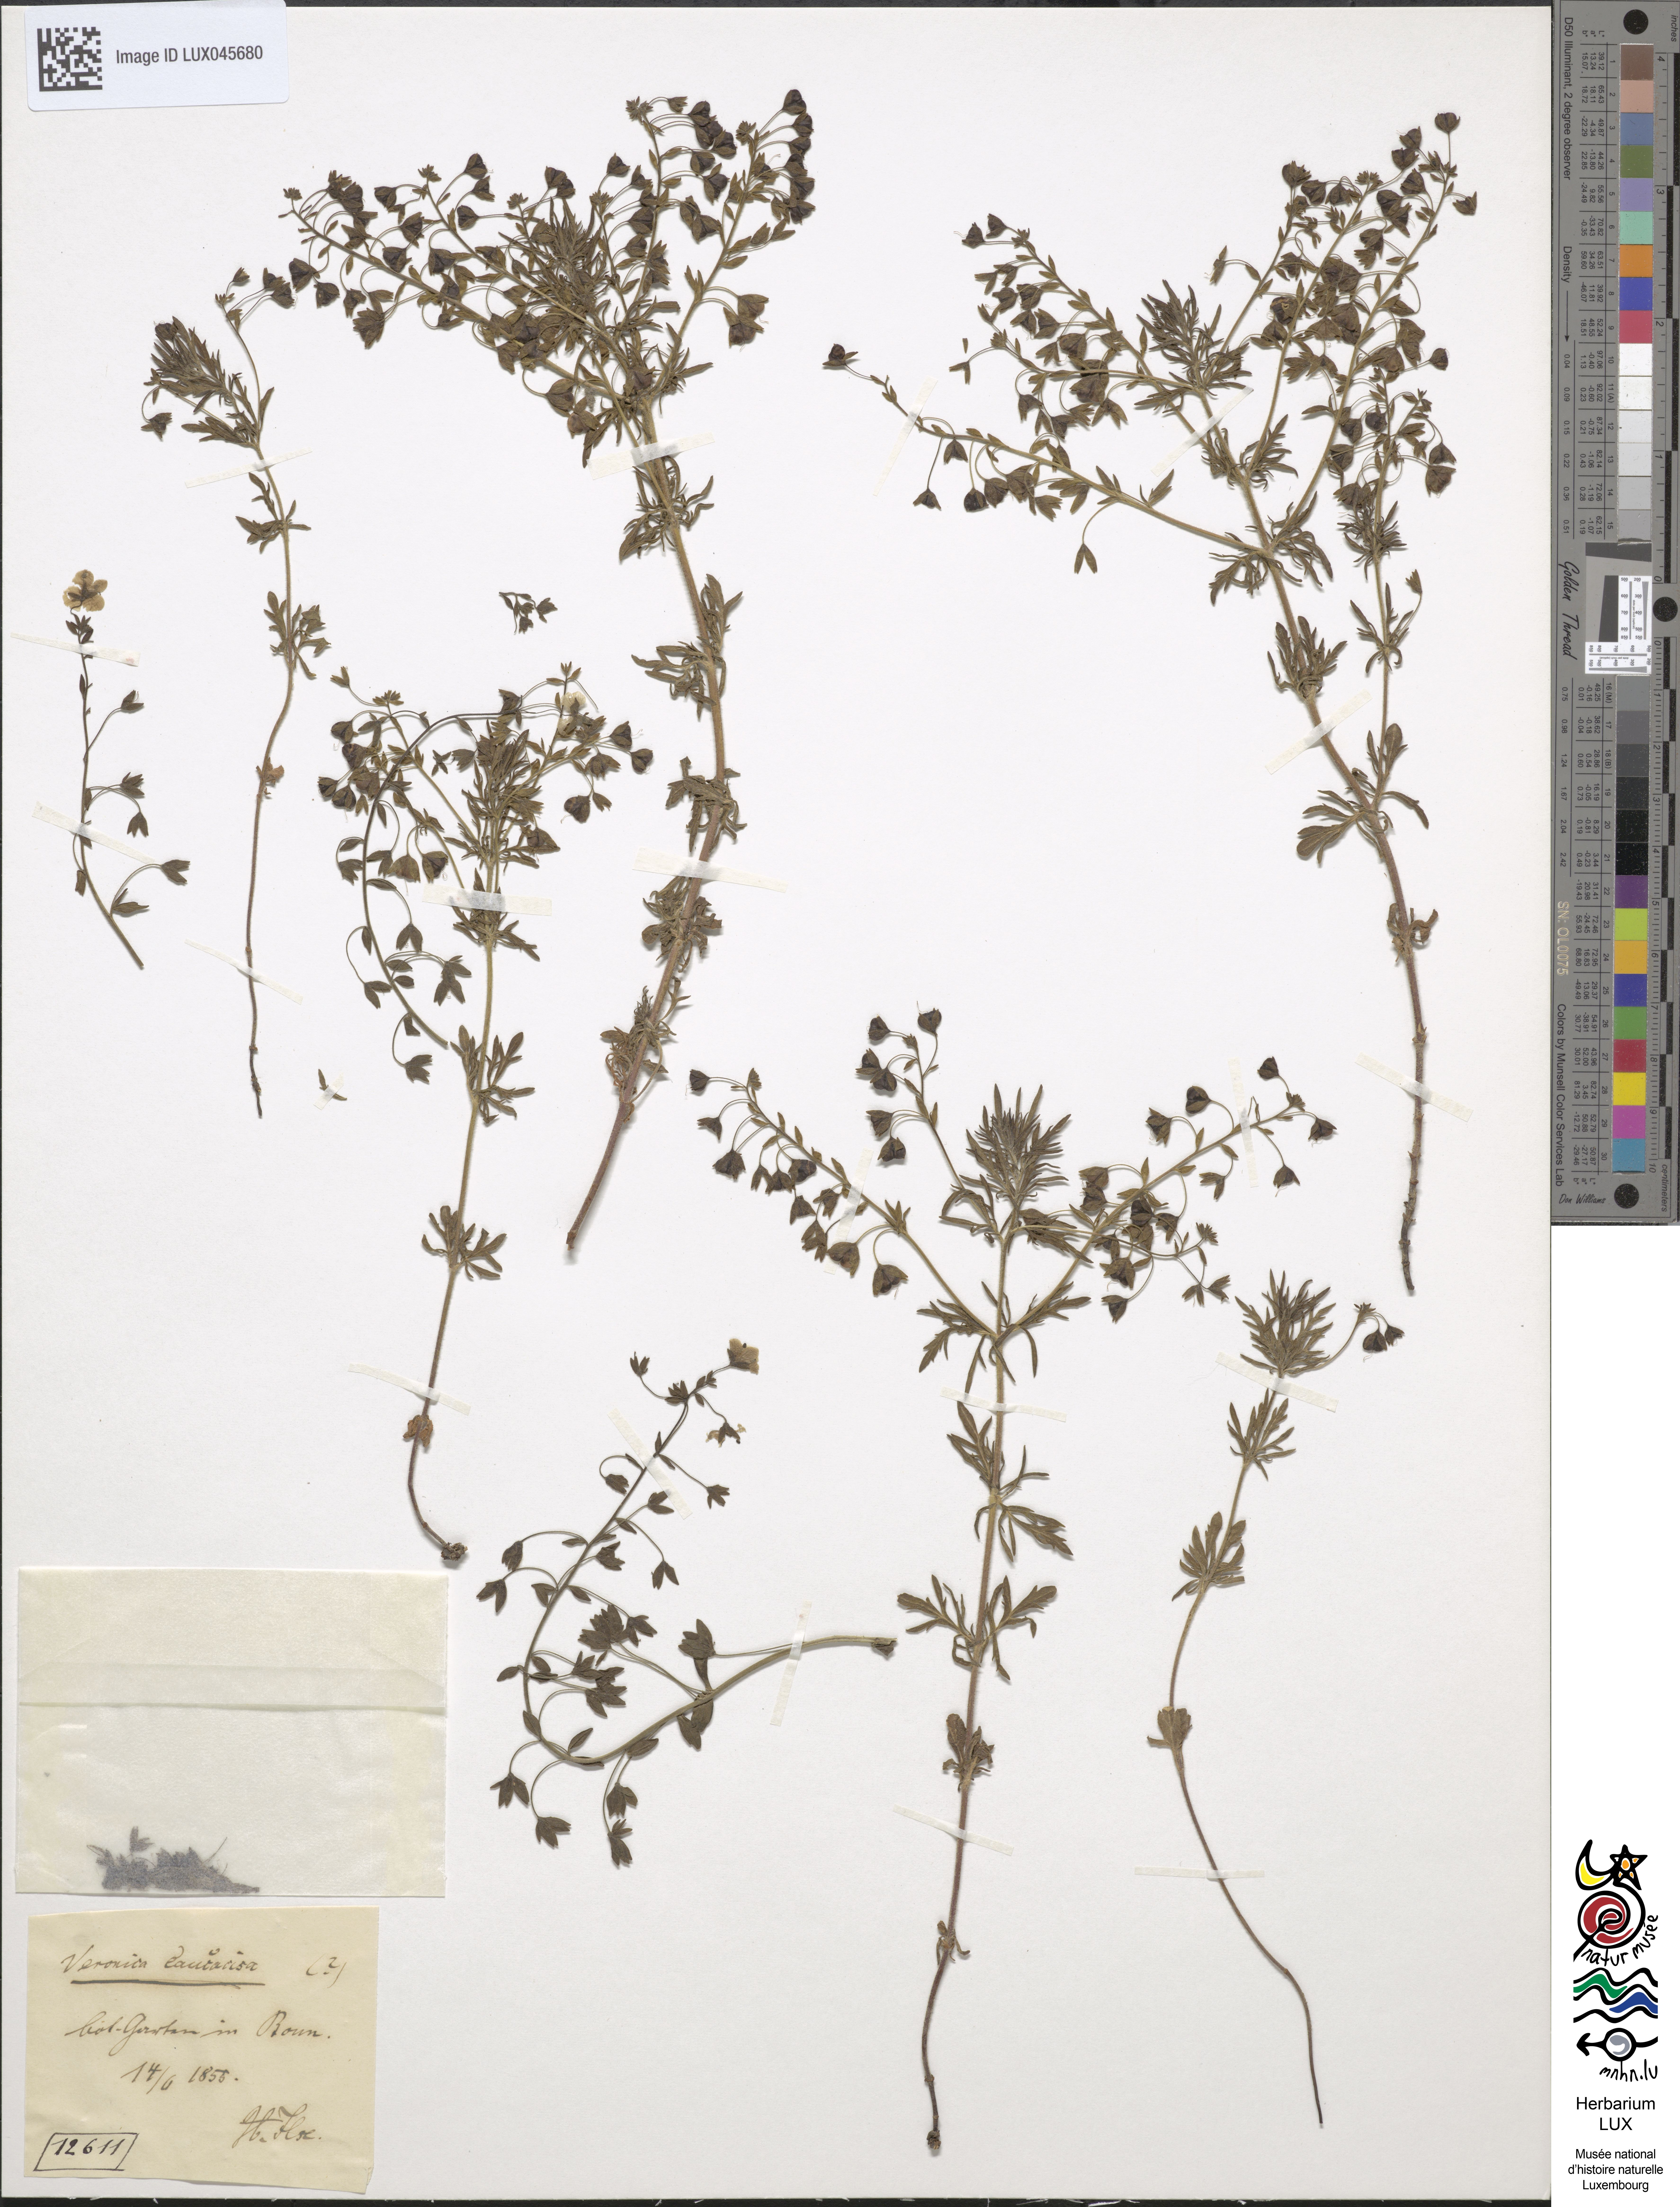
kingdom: Plantae
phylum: Tracheophyta
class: Magnoliopsida
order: Lamiales
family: Plantaginaceae
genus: Veronica
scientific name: Veronica caucasica
